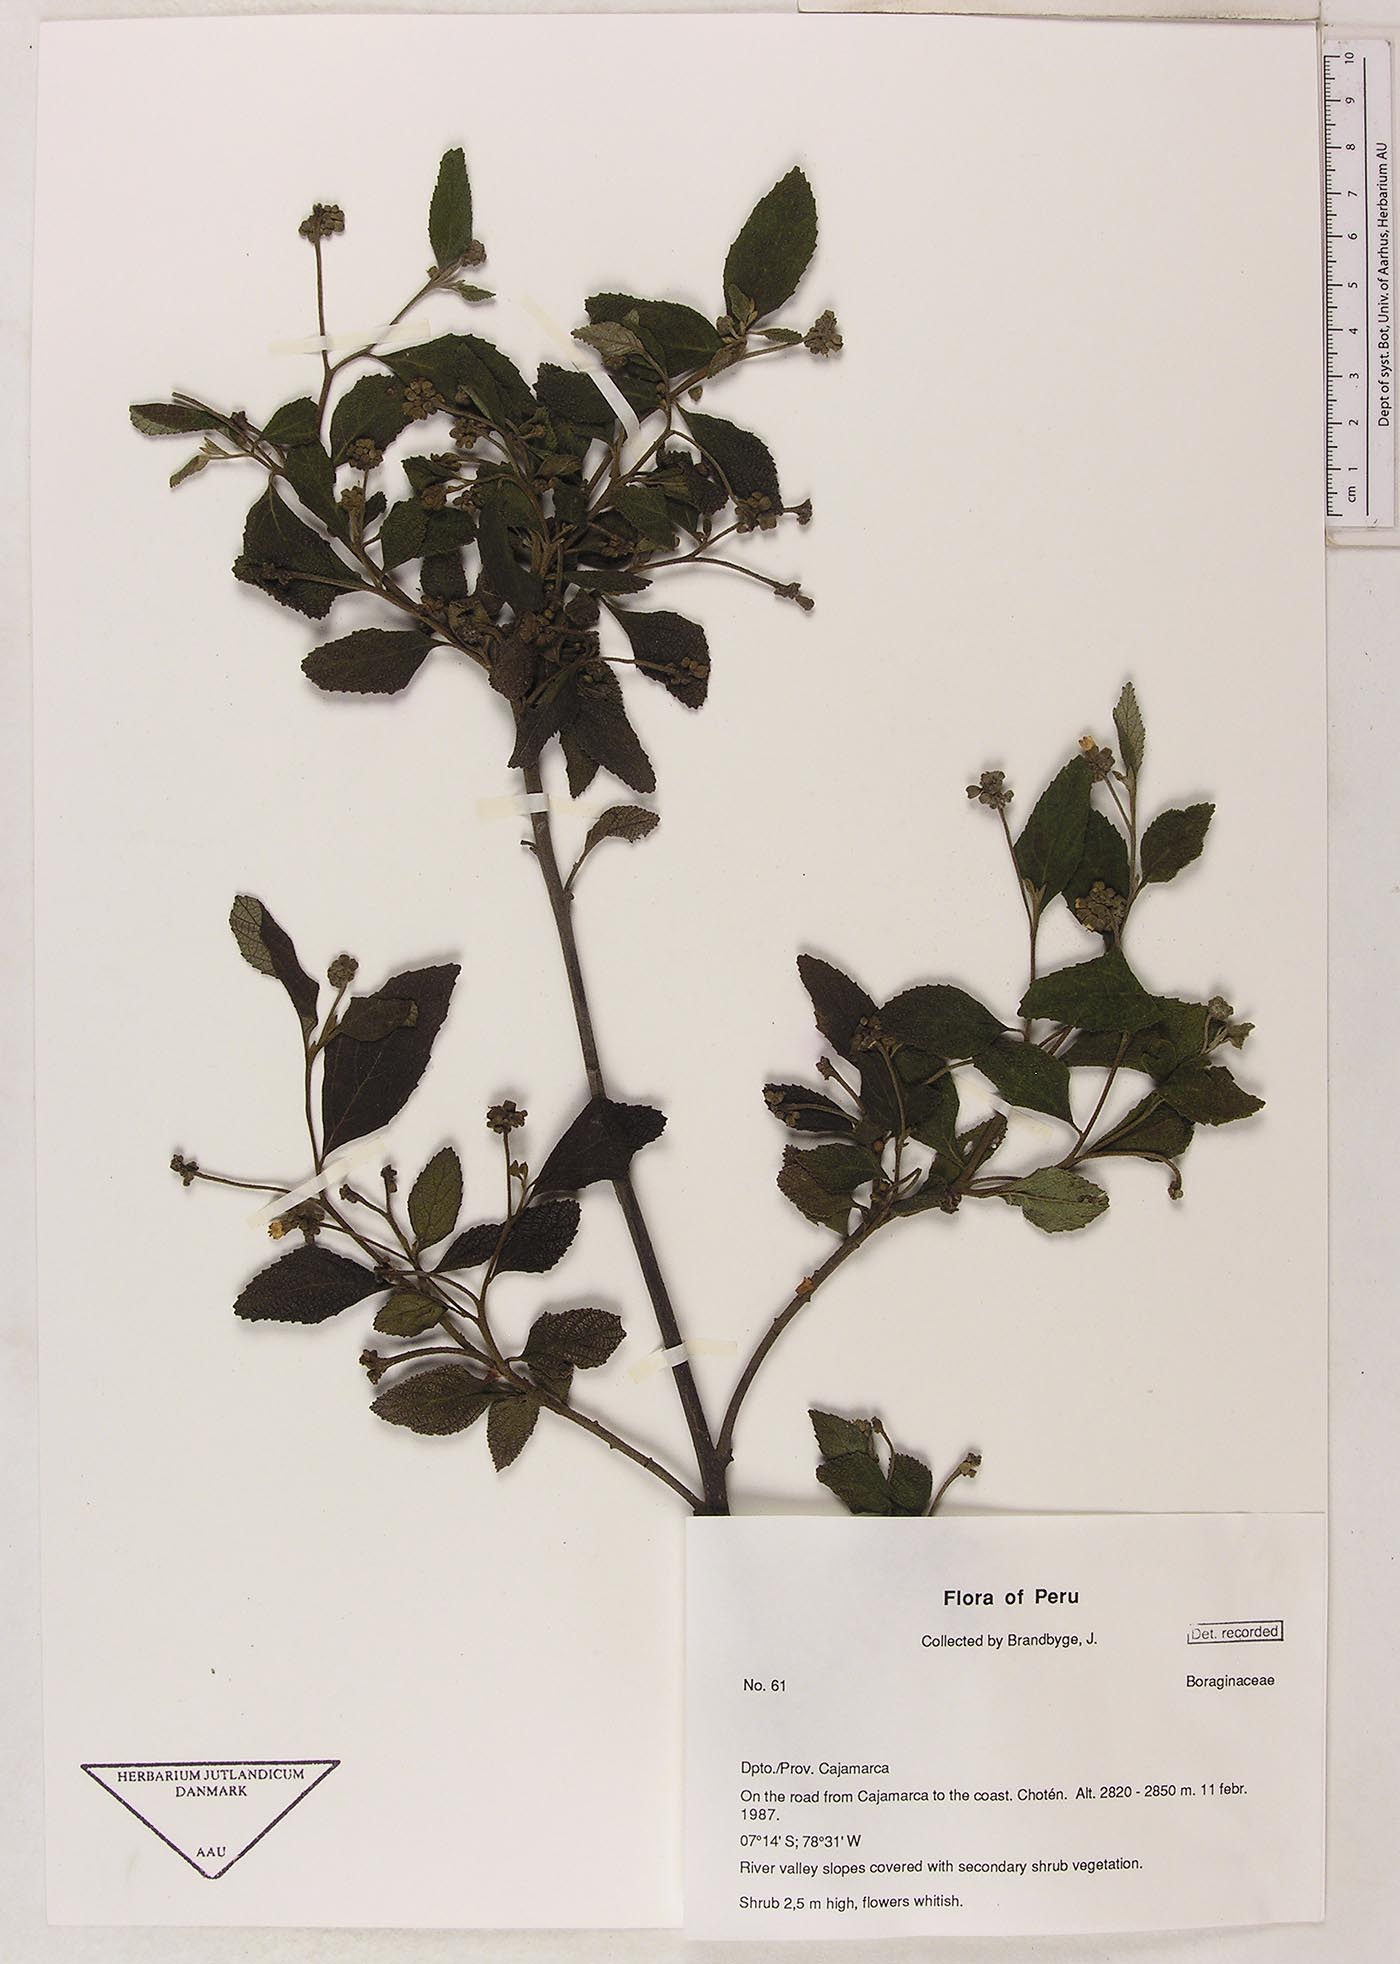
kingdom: Plantae
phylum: Tracheophyta
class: Magnoliopsida
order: Boraginales
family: Cordiaceae
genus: Varronia
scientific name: Varronia
